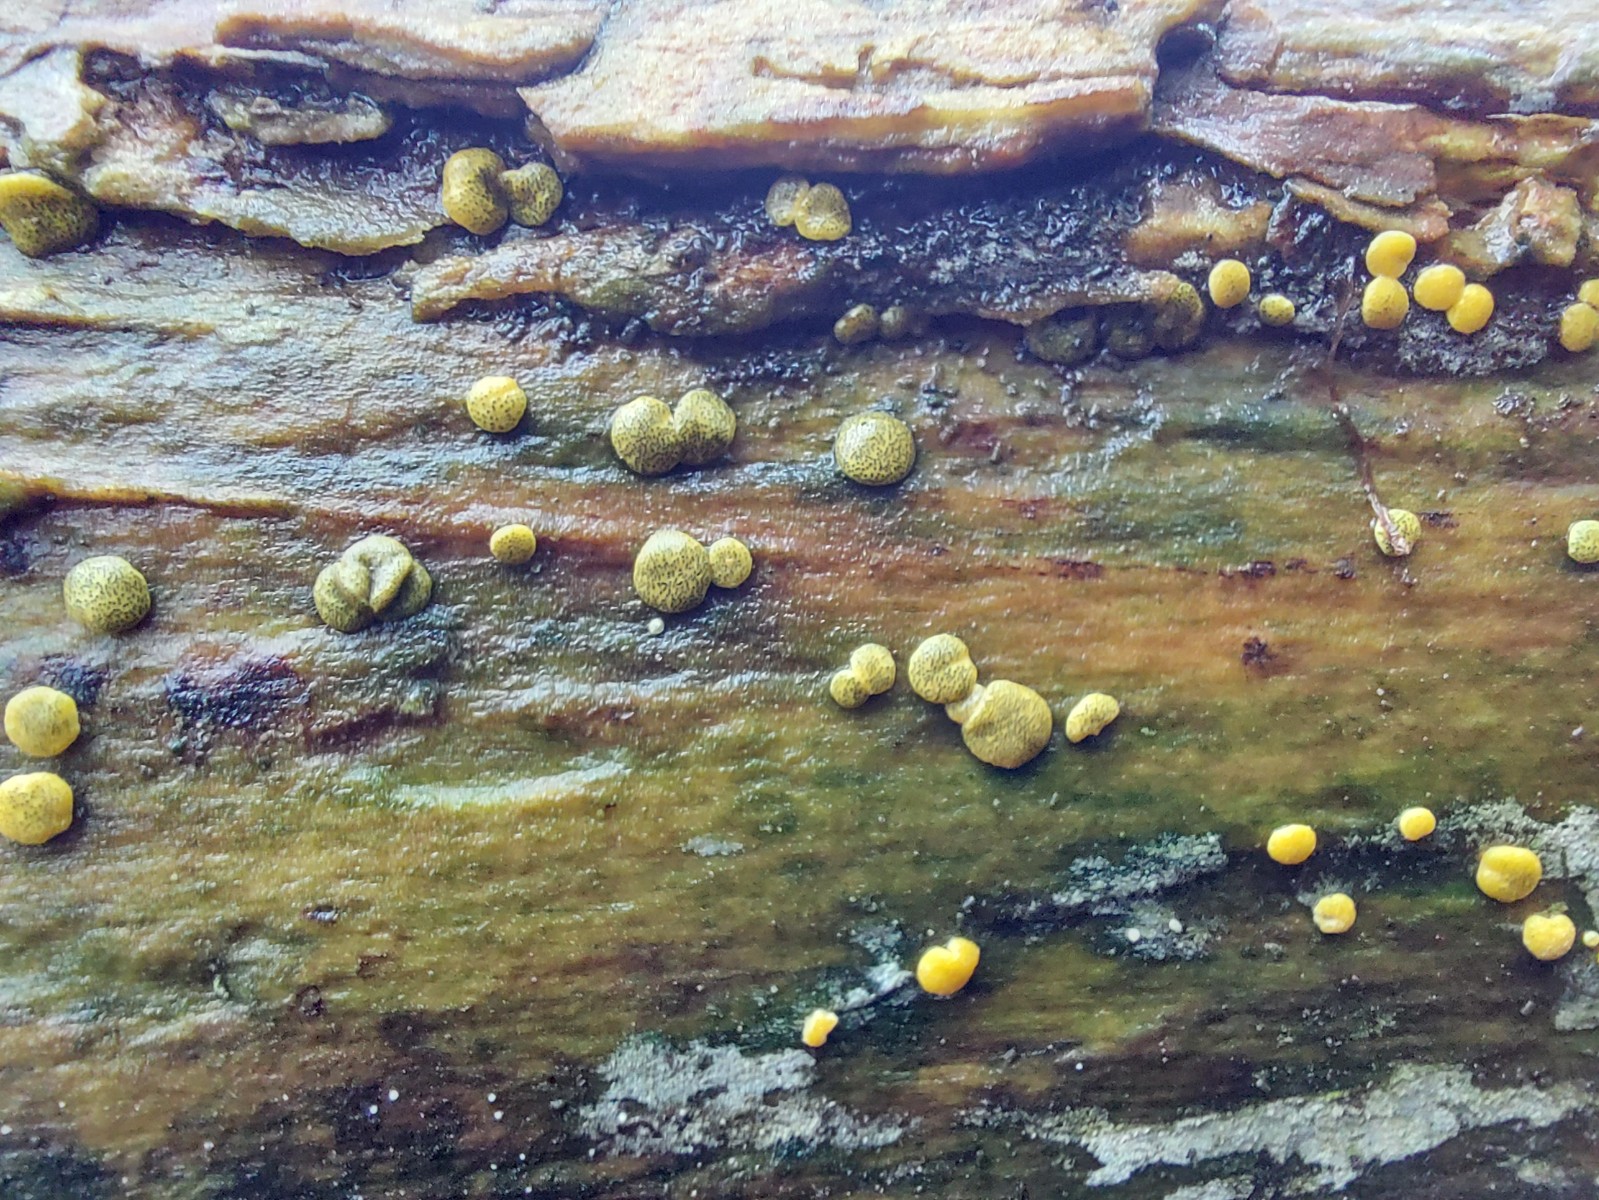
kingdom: Fungi
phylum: Ascomycota
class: Sordariomycetes
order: Hypocreales
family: Hypocreaceae
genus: Trichoderma
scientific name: Trichoderma aureoviride
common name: æggegul kødkerne
